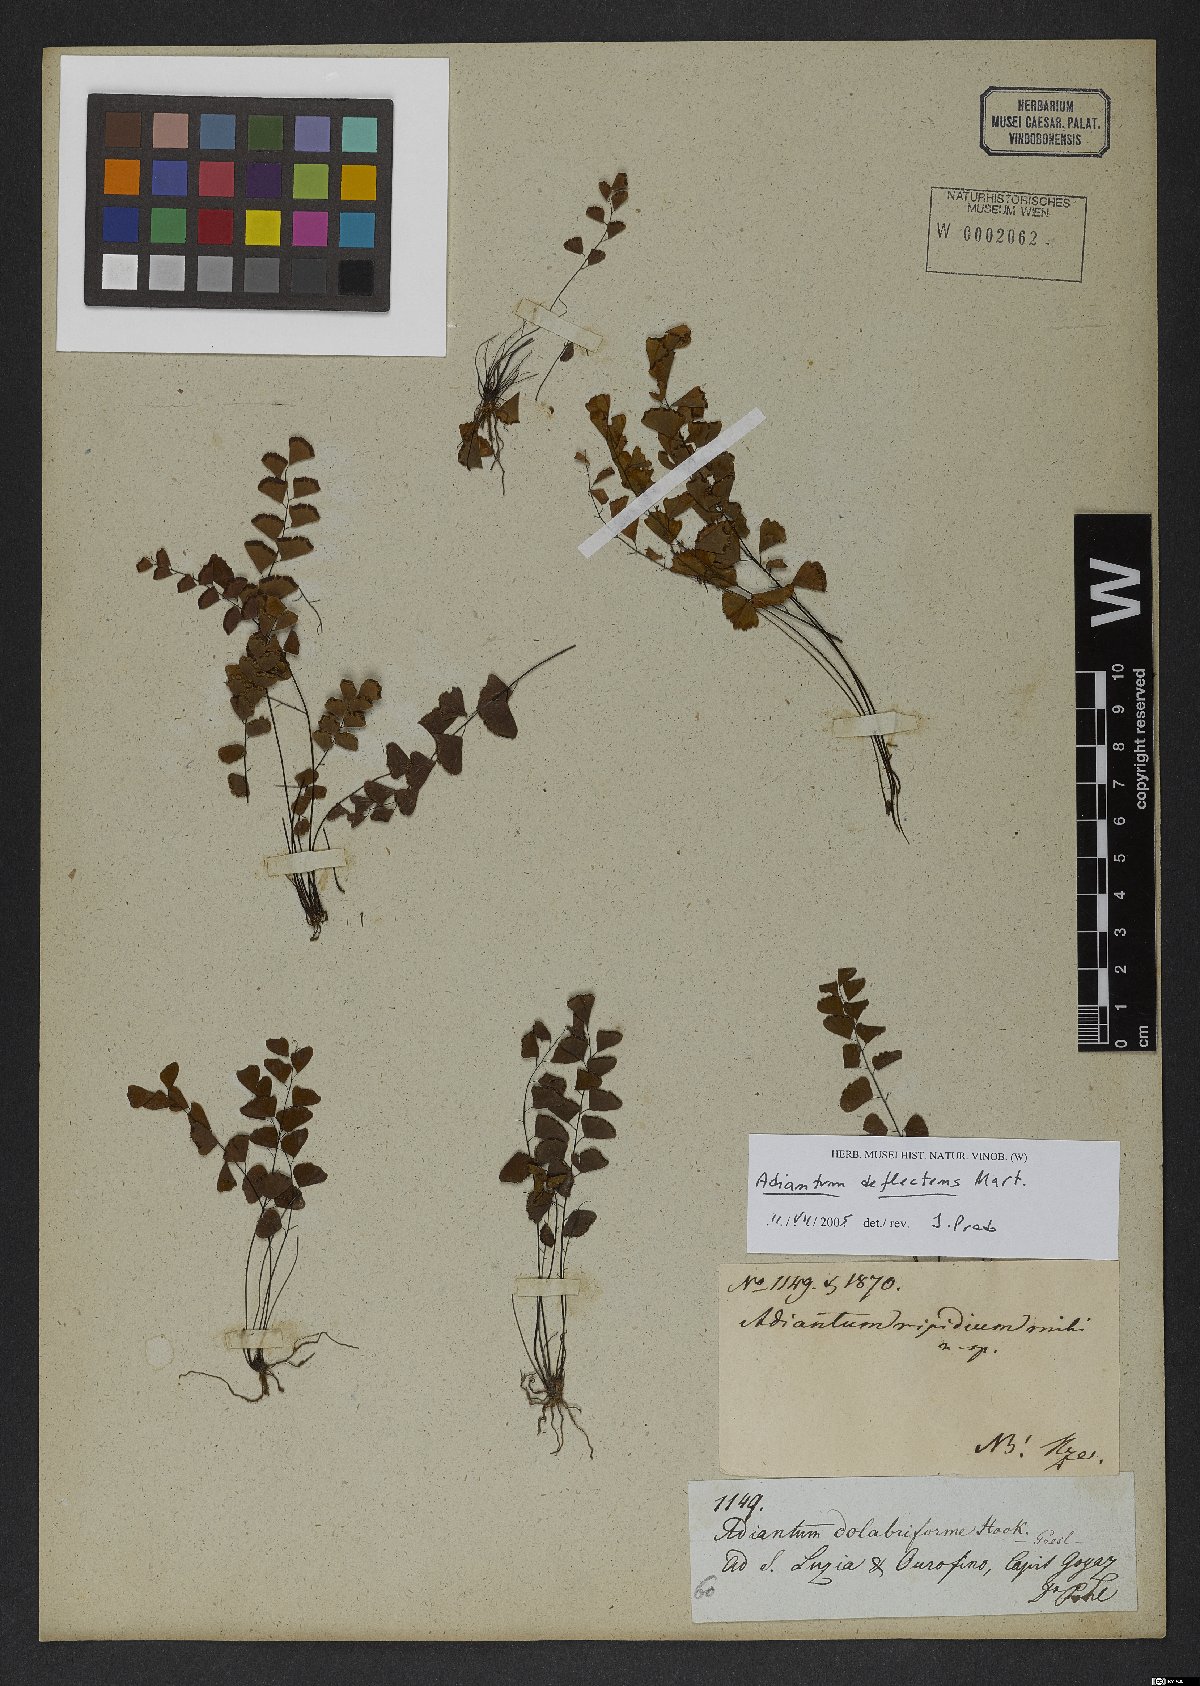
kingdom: Plantae
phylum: Tracheophyta
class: Polypodiopsida
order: Polypodiales
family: Pteridaceae
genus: Adiantum
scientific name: Adiantum deflectens
